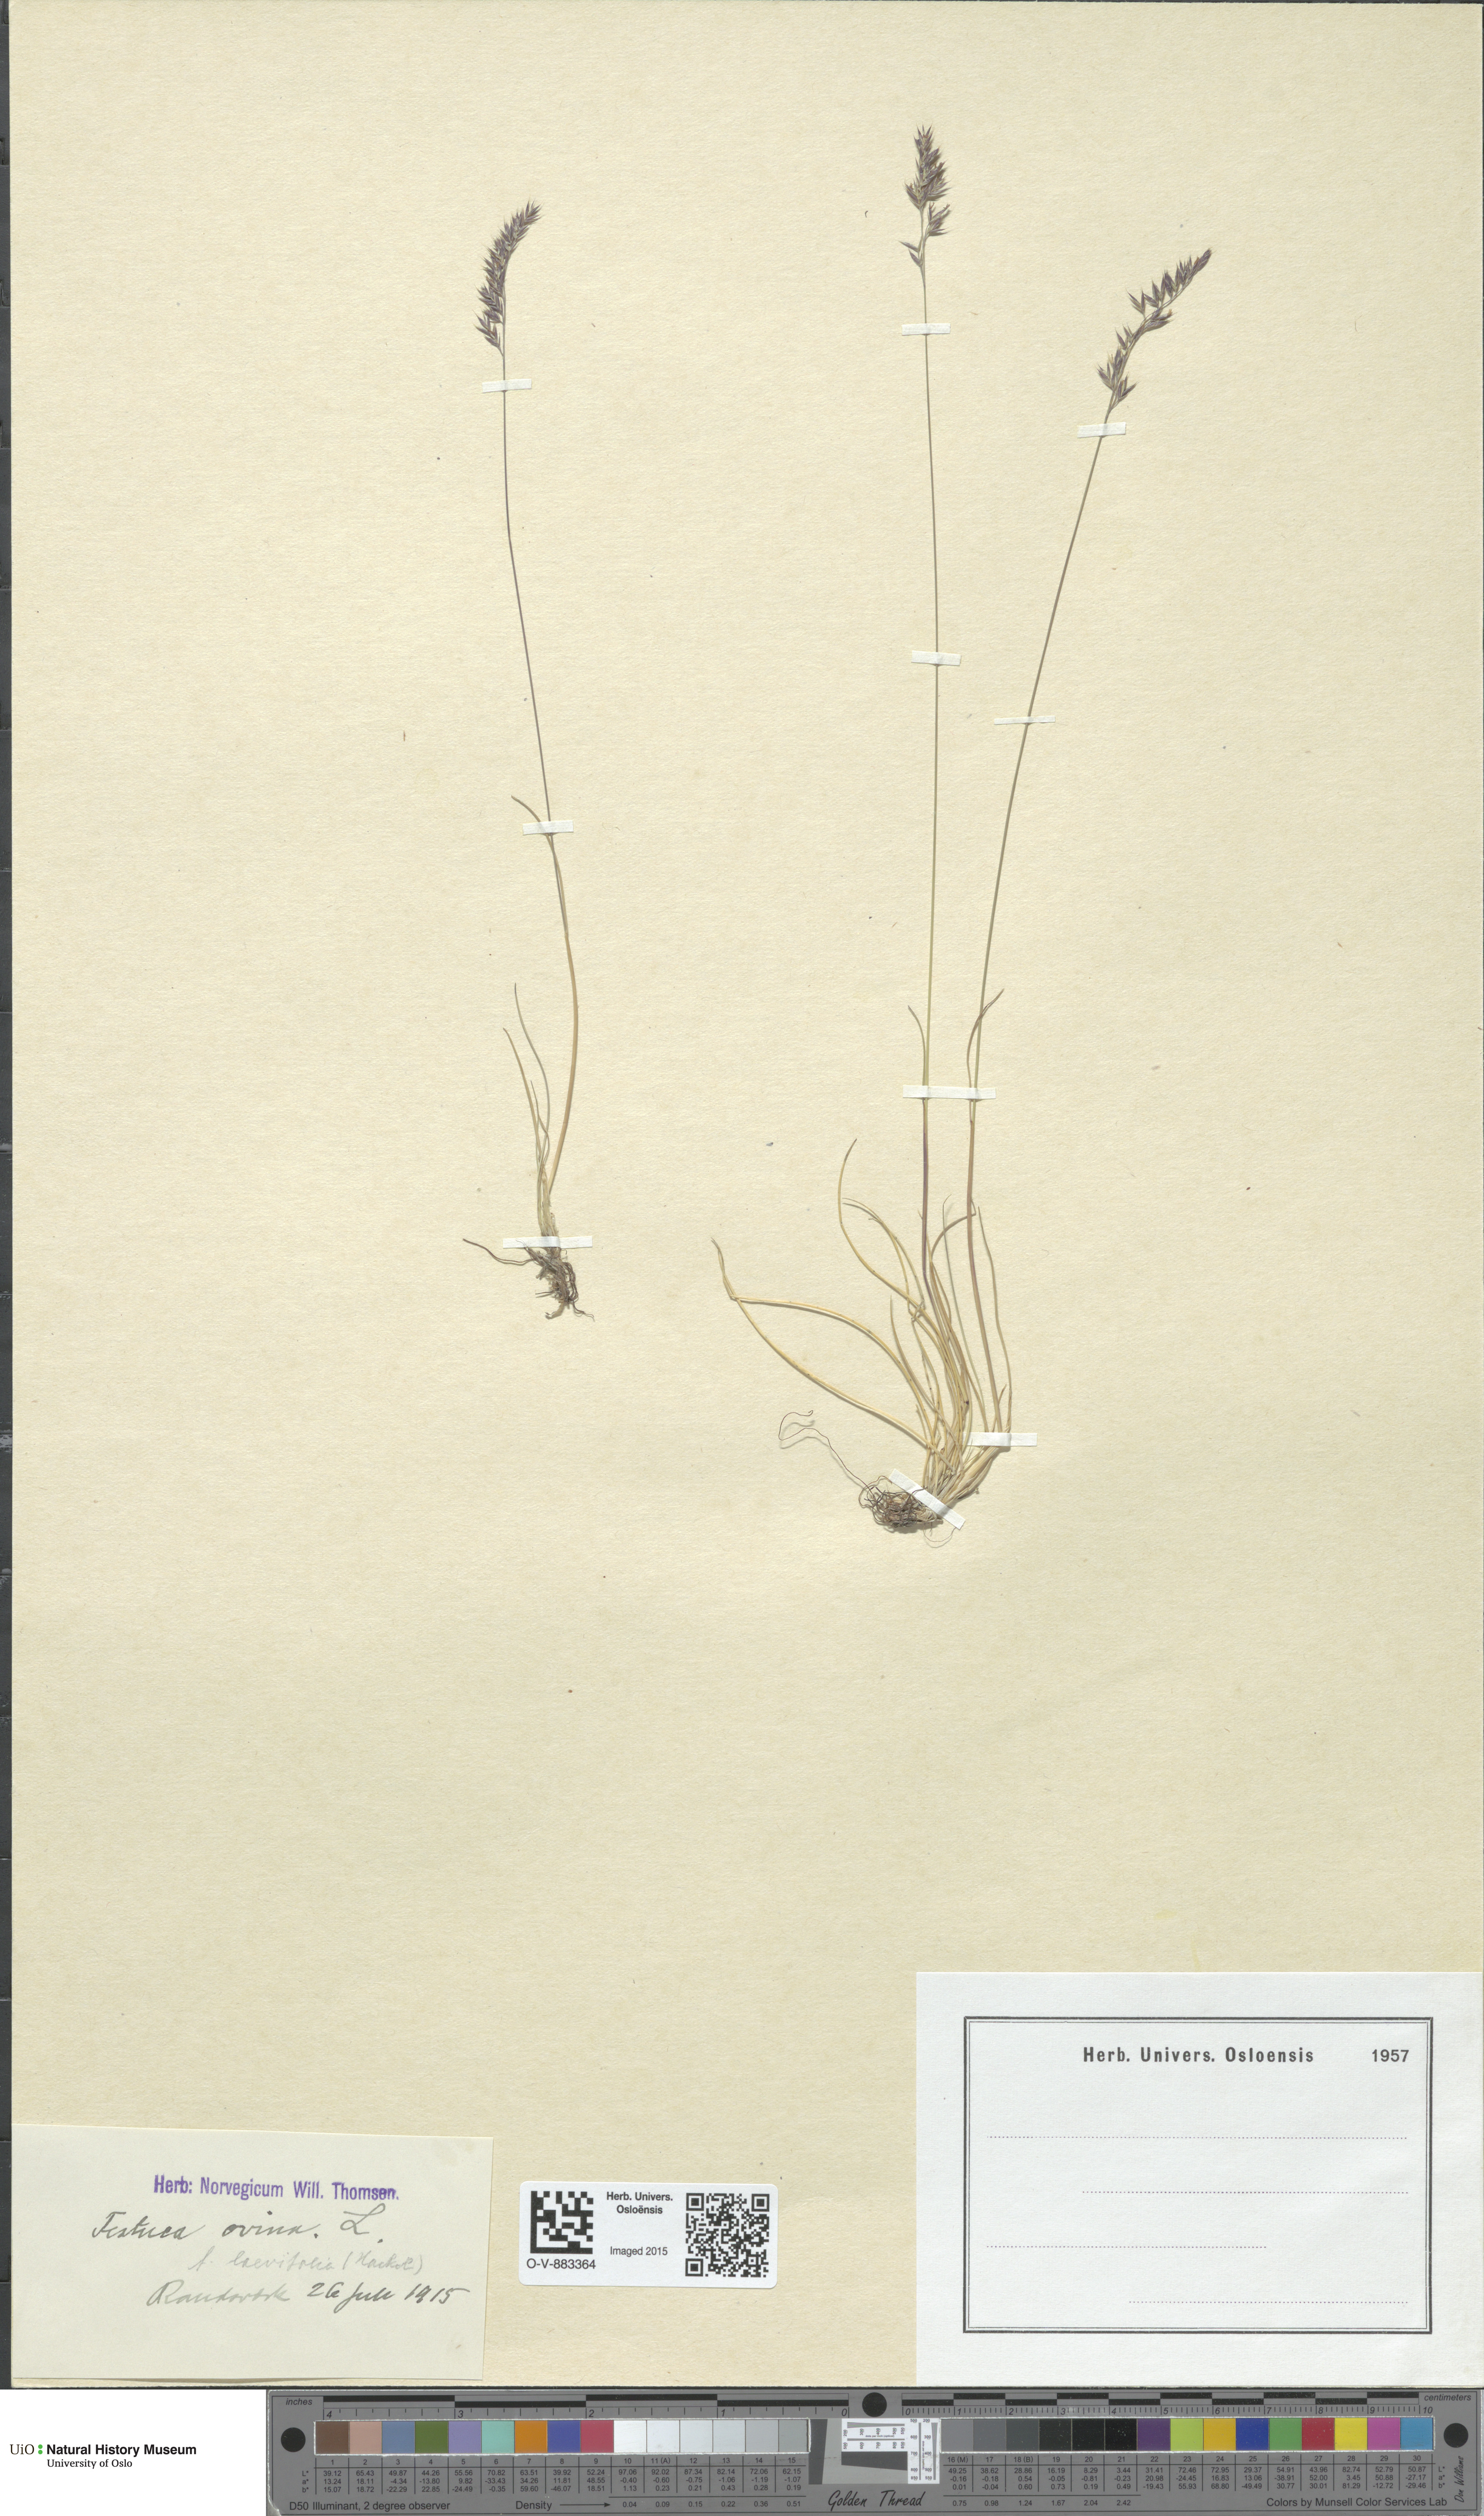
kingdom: Plantae
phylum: Tracheophyta
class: Liliopsida
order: Poales
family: Poaceae
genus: Festuca
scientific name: Festuca ovina
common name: Sheep fescue
